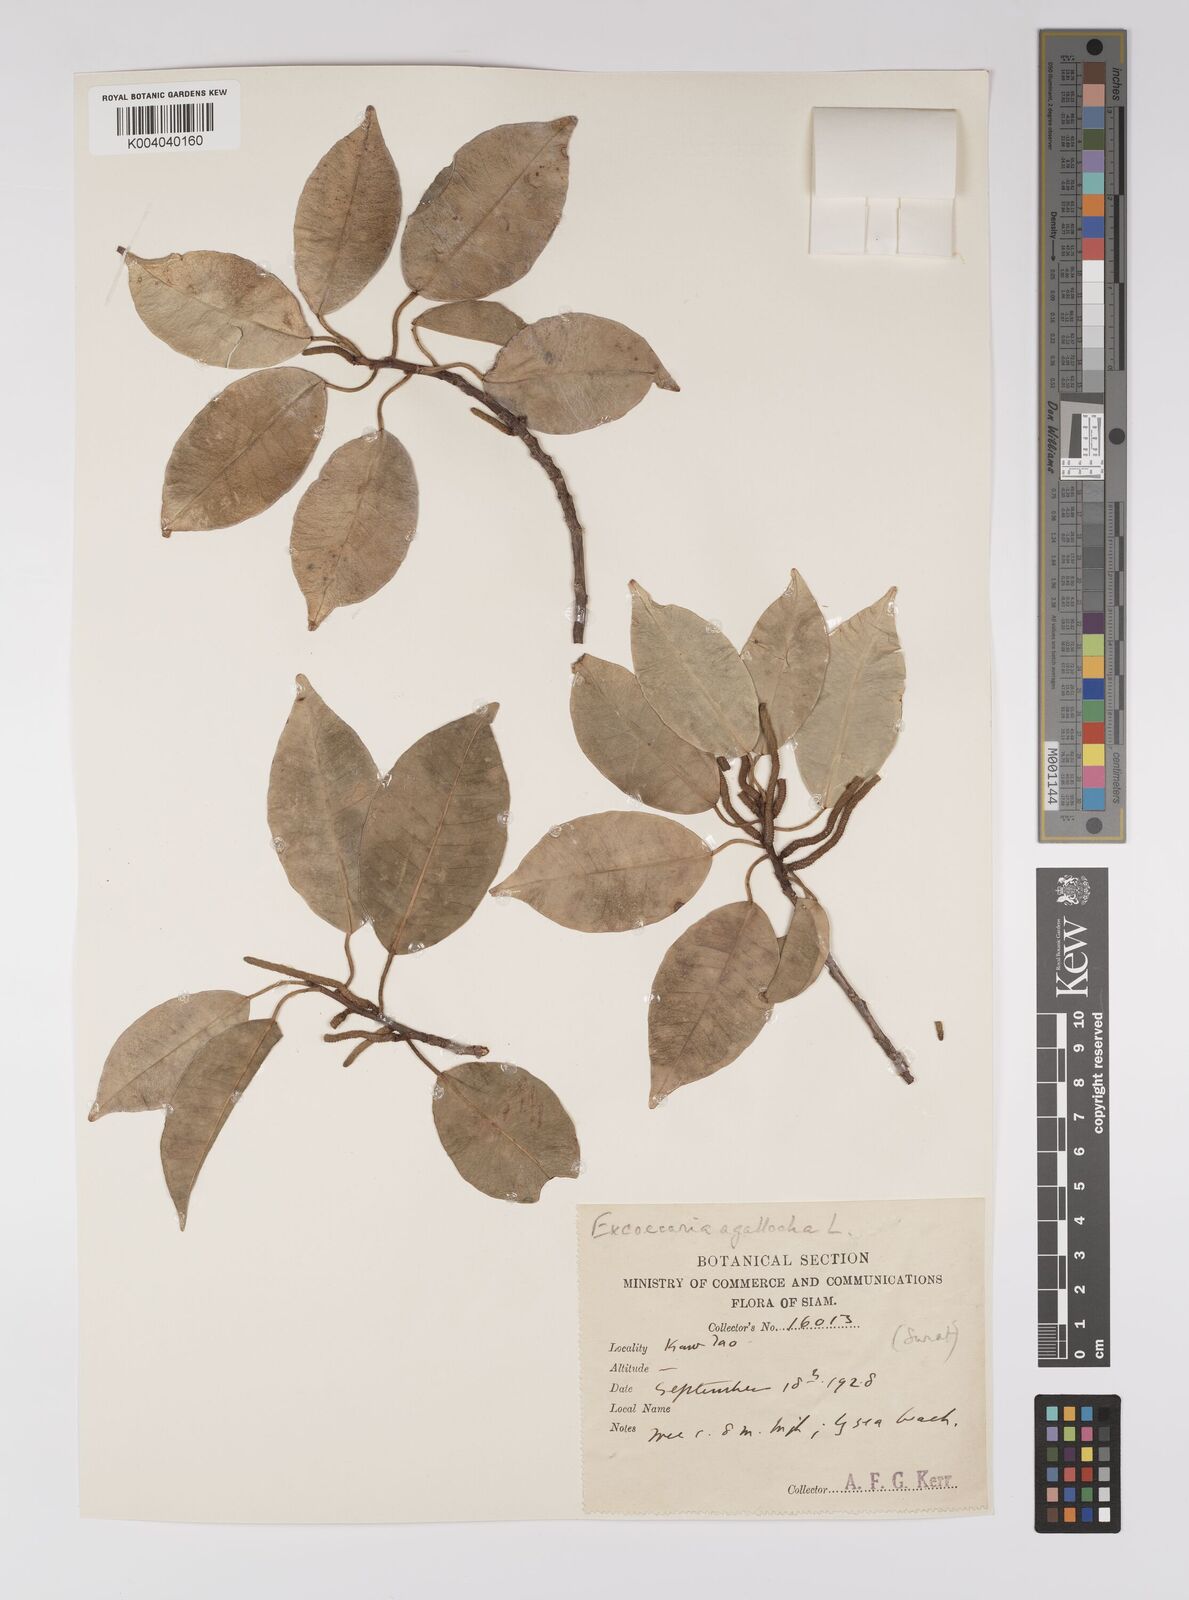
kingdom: Plantae
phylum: Tracheophyta
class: Magnoliopsida
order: Malpighiales
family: Euphorbiaceae
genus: Excoecaria
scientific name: Excoecaria agallocha
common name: River poisontree
